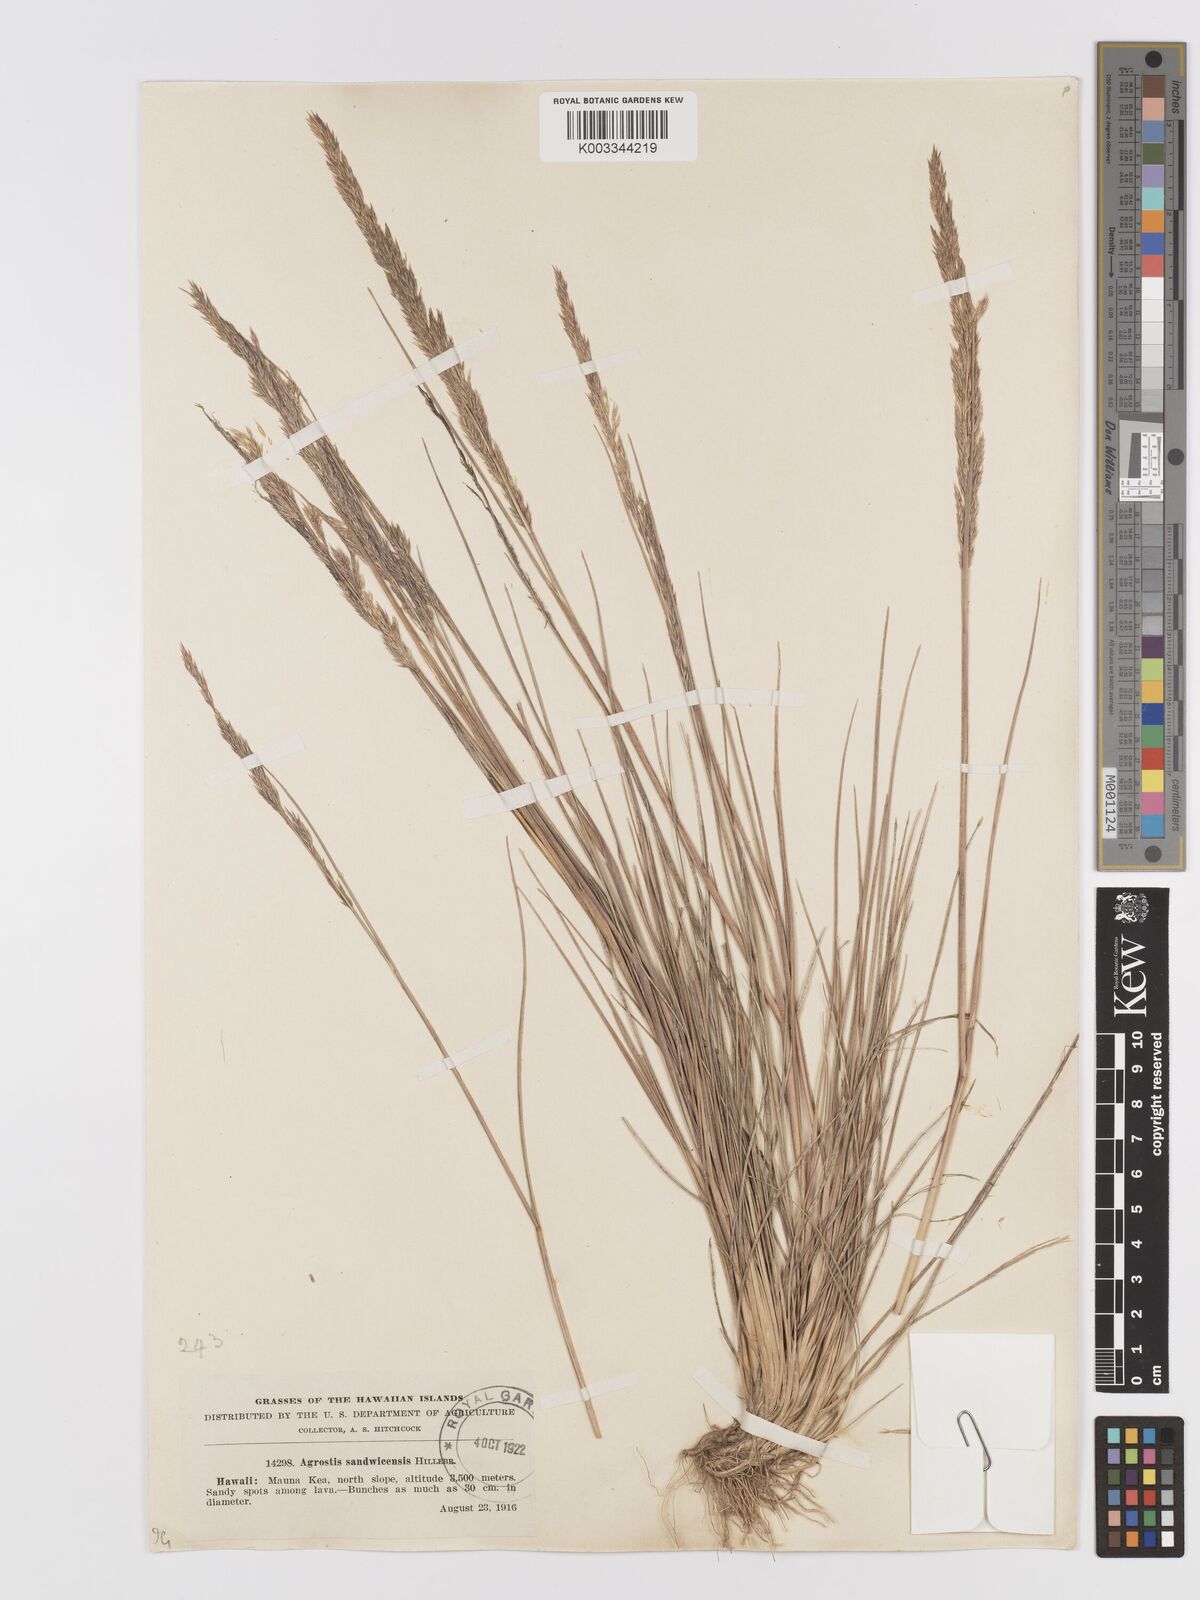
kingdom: Plantae
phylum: Tracheophyta
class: Liliopsida
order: Poales
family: Poaceae
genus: Agrostis
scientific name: Agrostis sandwicensis
